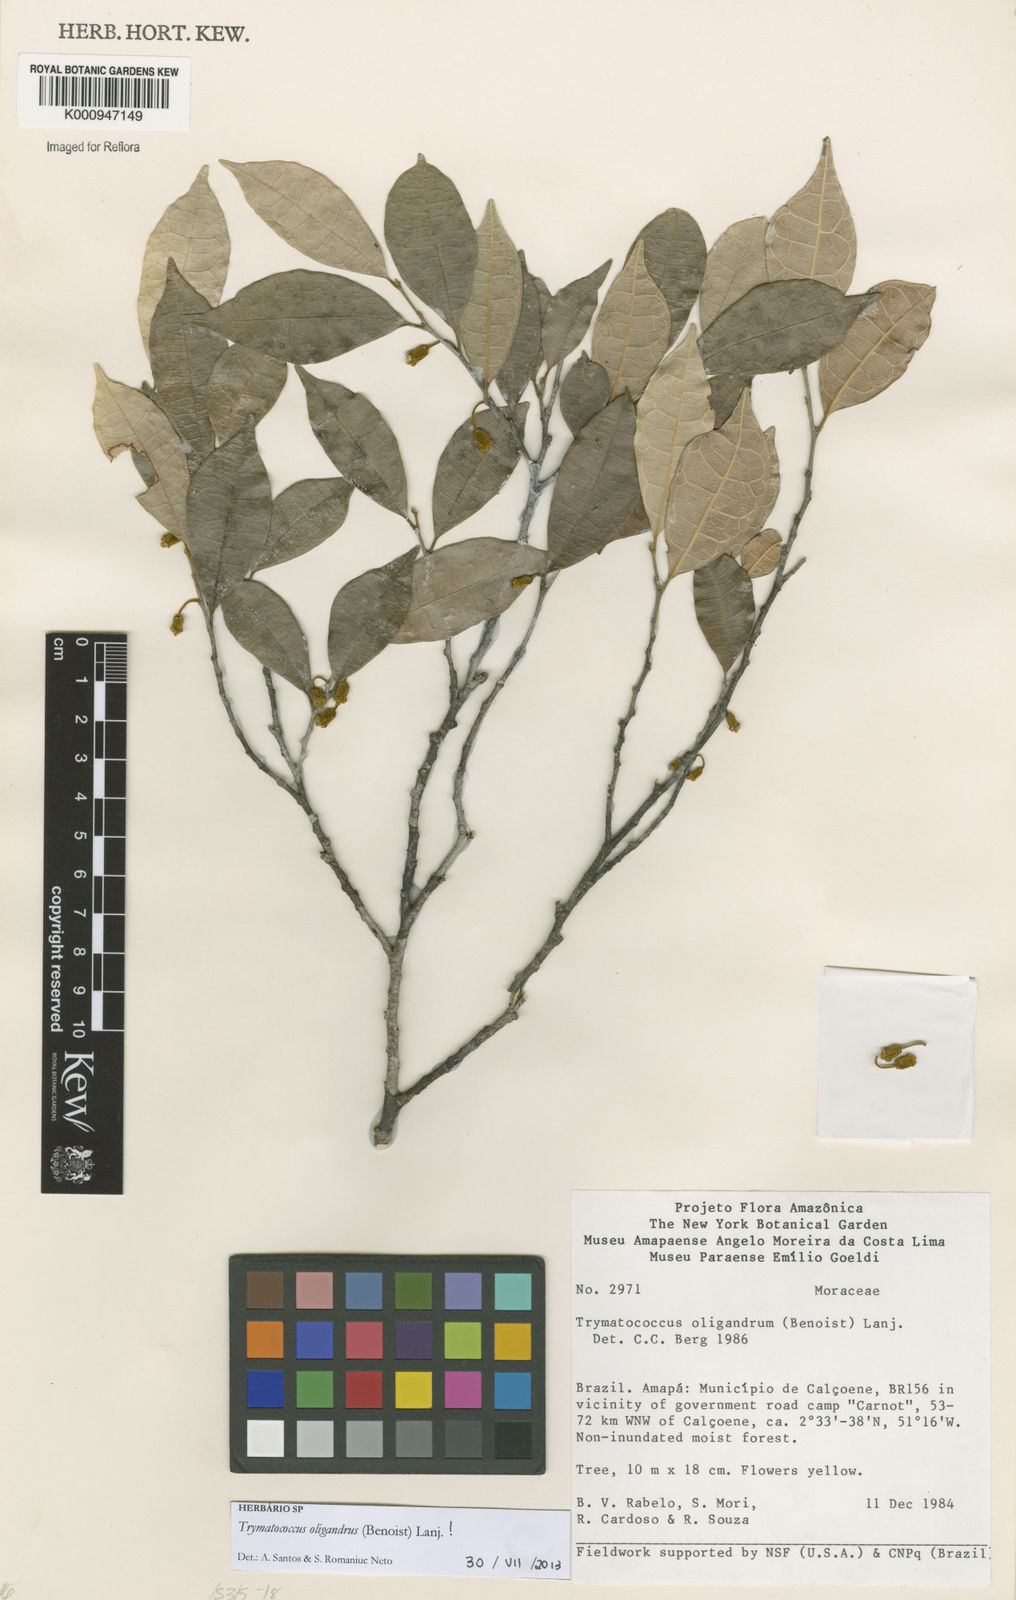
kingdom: Plantae
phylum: Tracheophyta
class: Magnoliopsida
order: Rosales
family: Moraceae
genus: Brosimum
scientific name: Brosimum oligandrum
